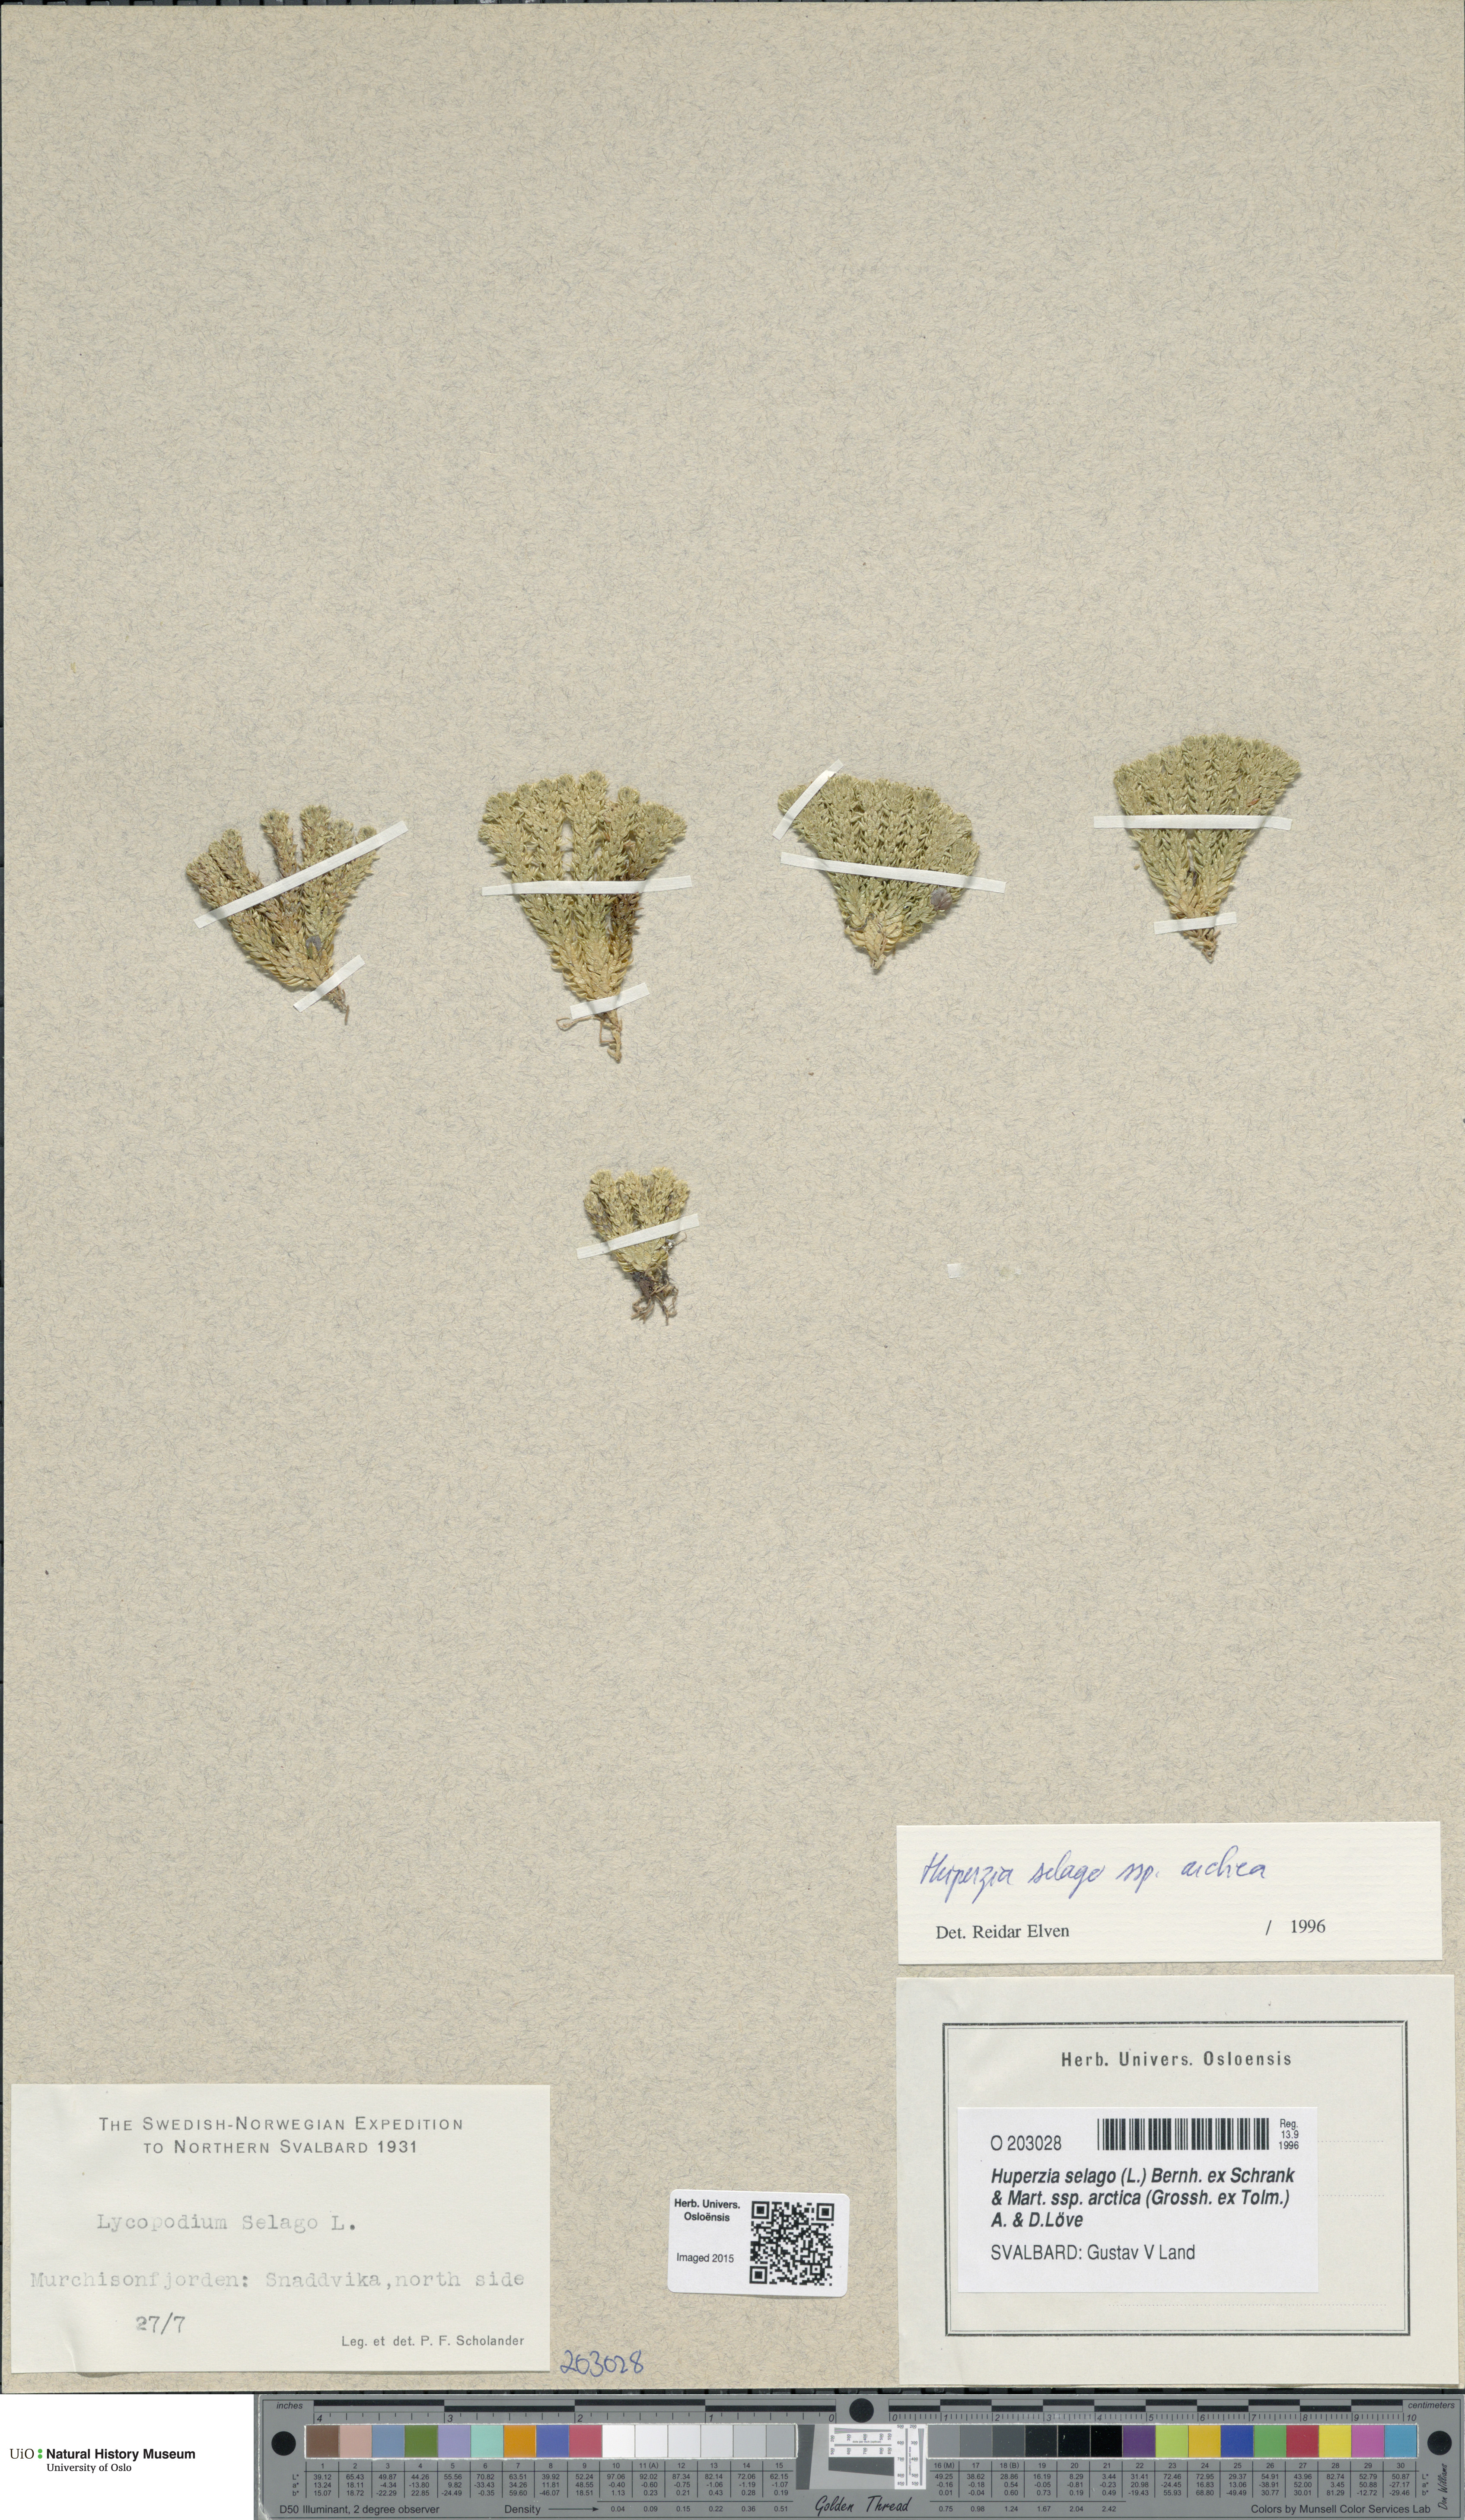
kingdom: Plantae
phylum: Tracheophyta
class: Lycopodiopsida
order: Lycopodiales
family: Lycopodiaceae
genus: Huperzia
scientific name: Huperzia selago
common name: Northern firmoss
